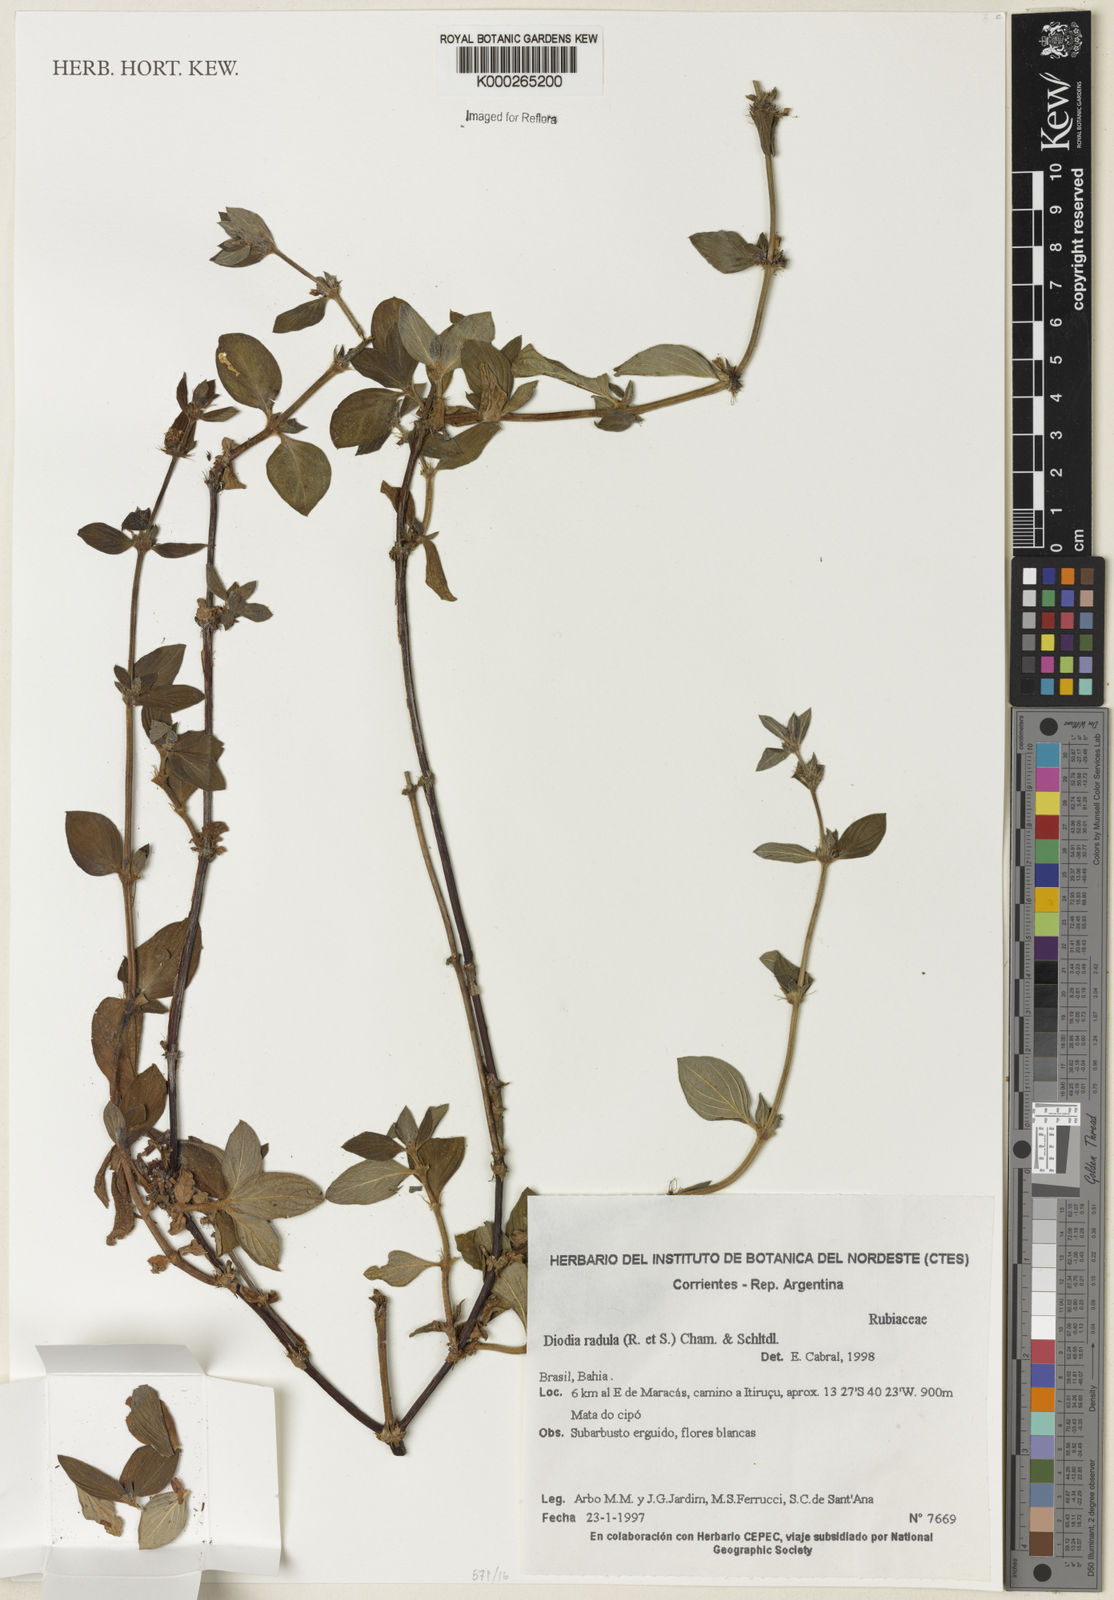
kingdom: Plantae
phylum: Tracheophyta
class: Magnoliopsida
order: Gentianales
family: Rubiaceae
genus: Hexasepalum
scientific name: Hexasepalum radulum
